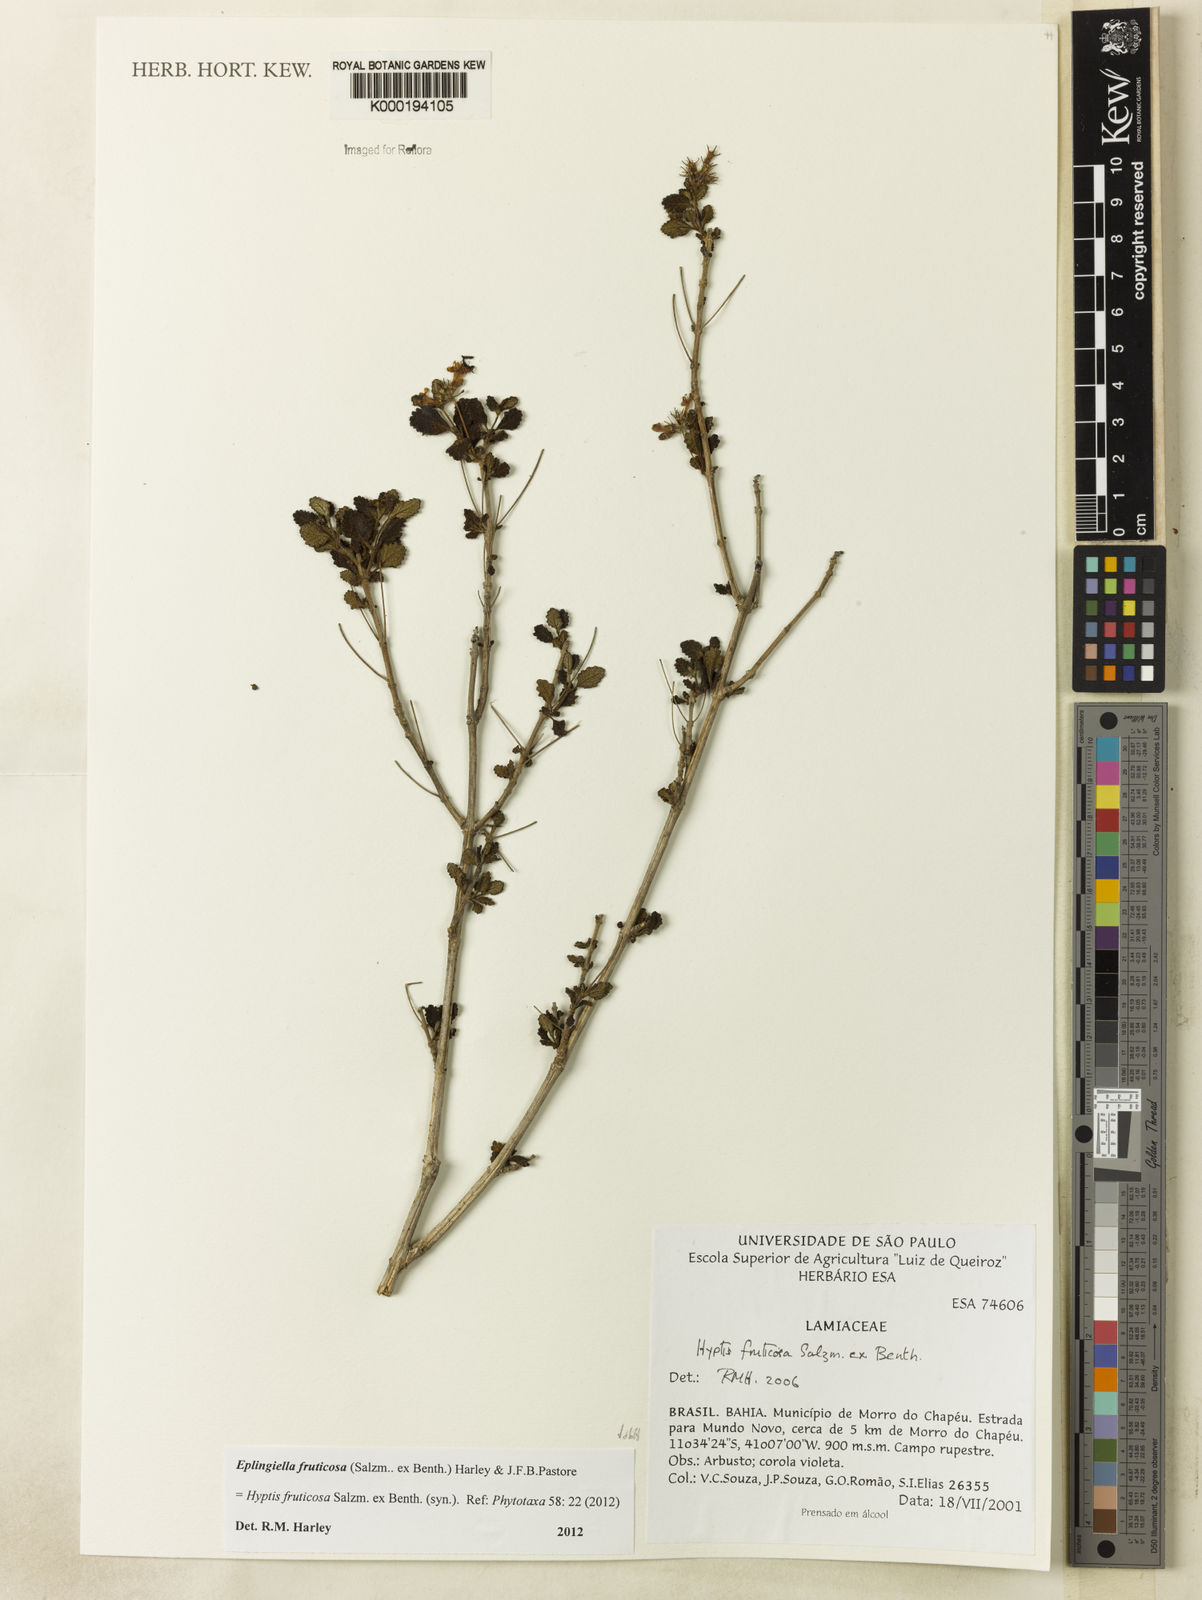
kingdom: Plantae
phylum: Tracheophyta
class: Magnoliopsida
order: Lamiales
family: Lamiaceae
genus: Eplingiella
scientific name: Eplingiella fruticosa
